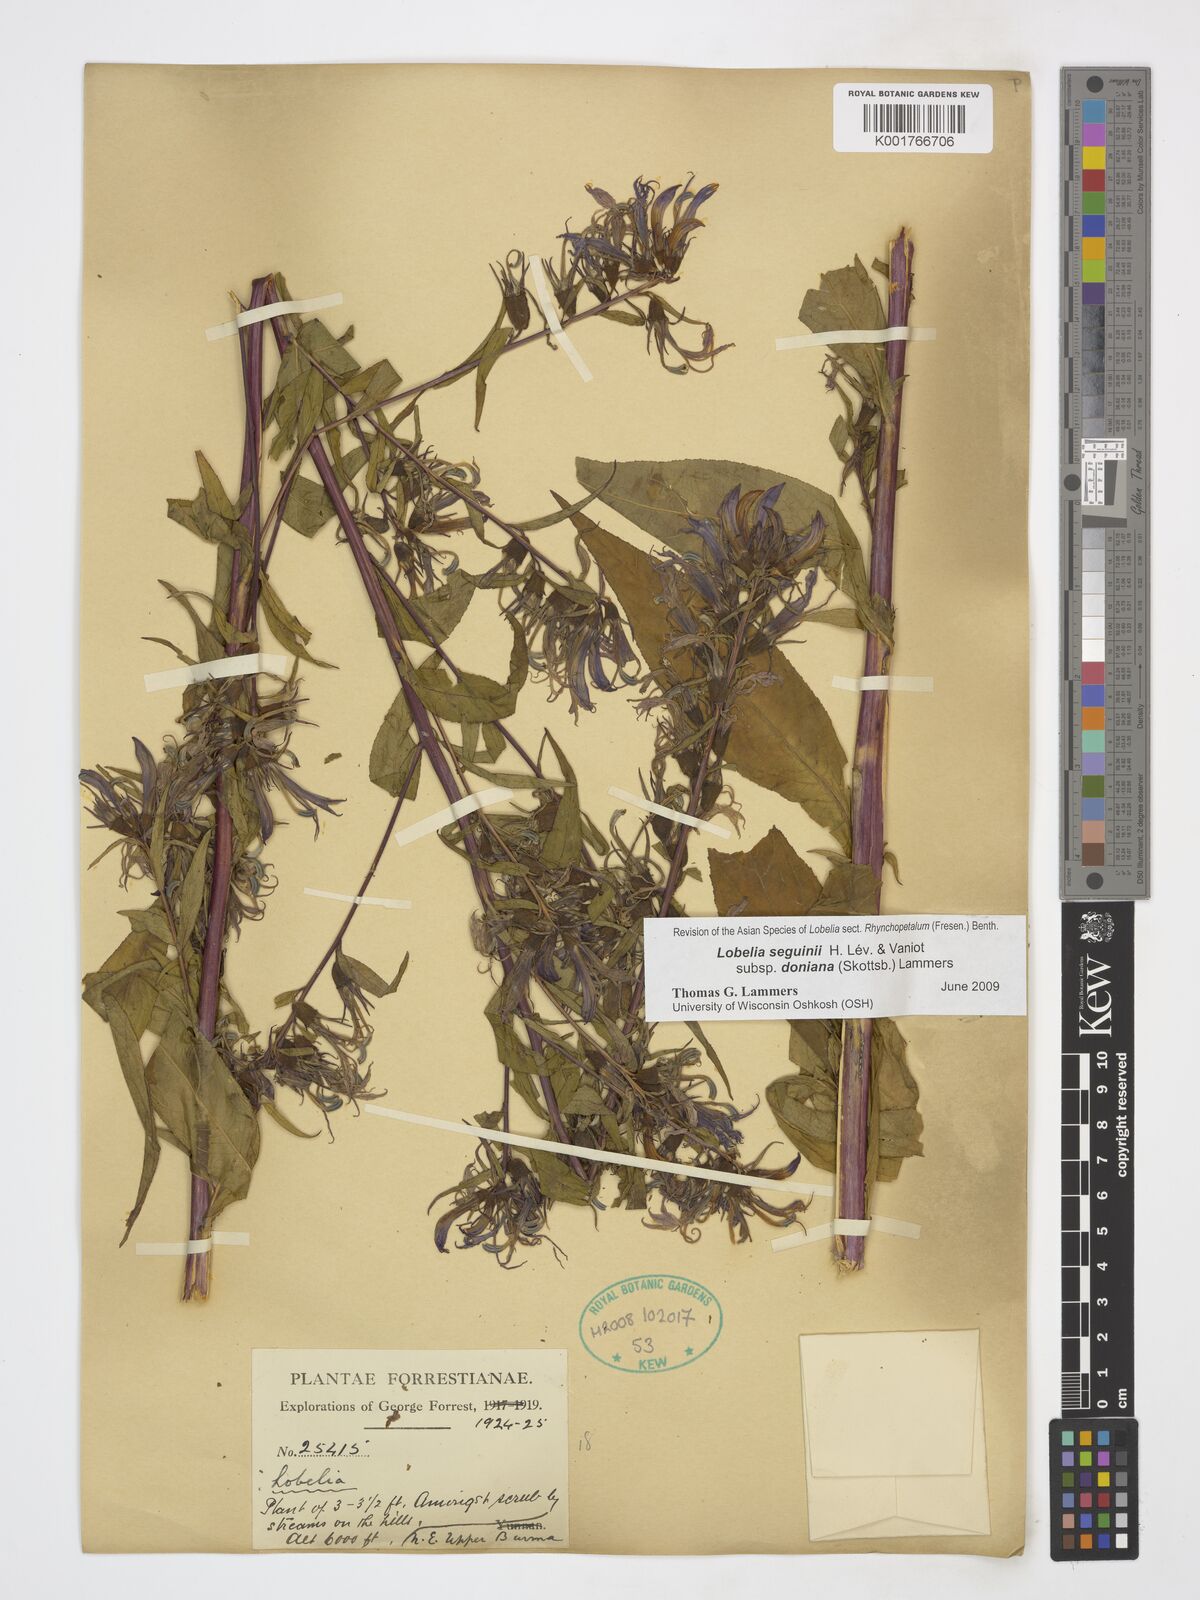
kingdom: Plantae
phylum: Tracheophyta
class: Magnoliopsida
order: Asterales
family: Campanulaceae
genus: Lobelia
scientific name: Lobelia seguinii
